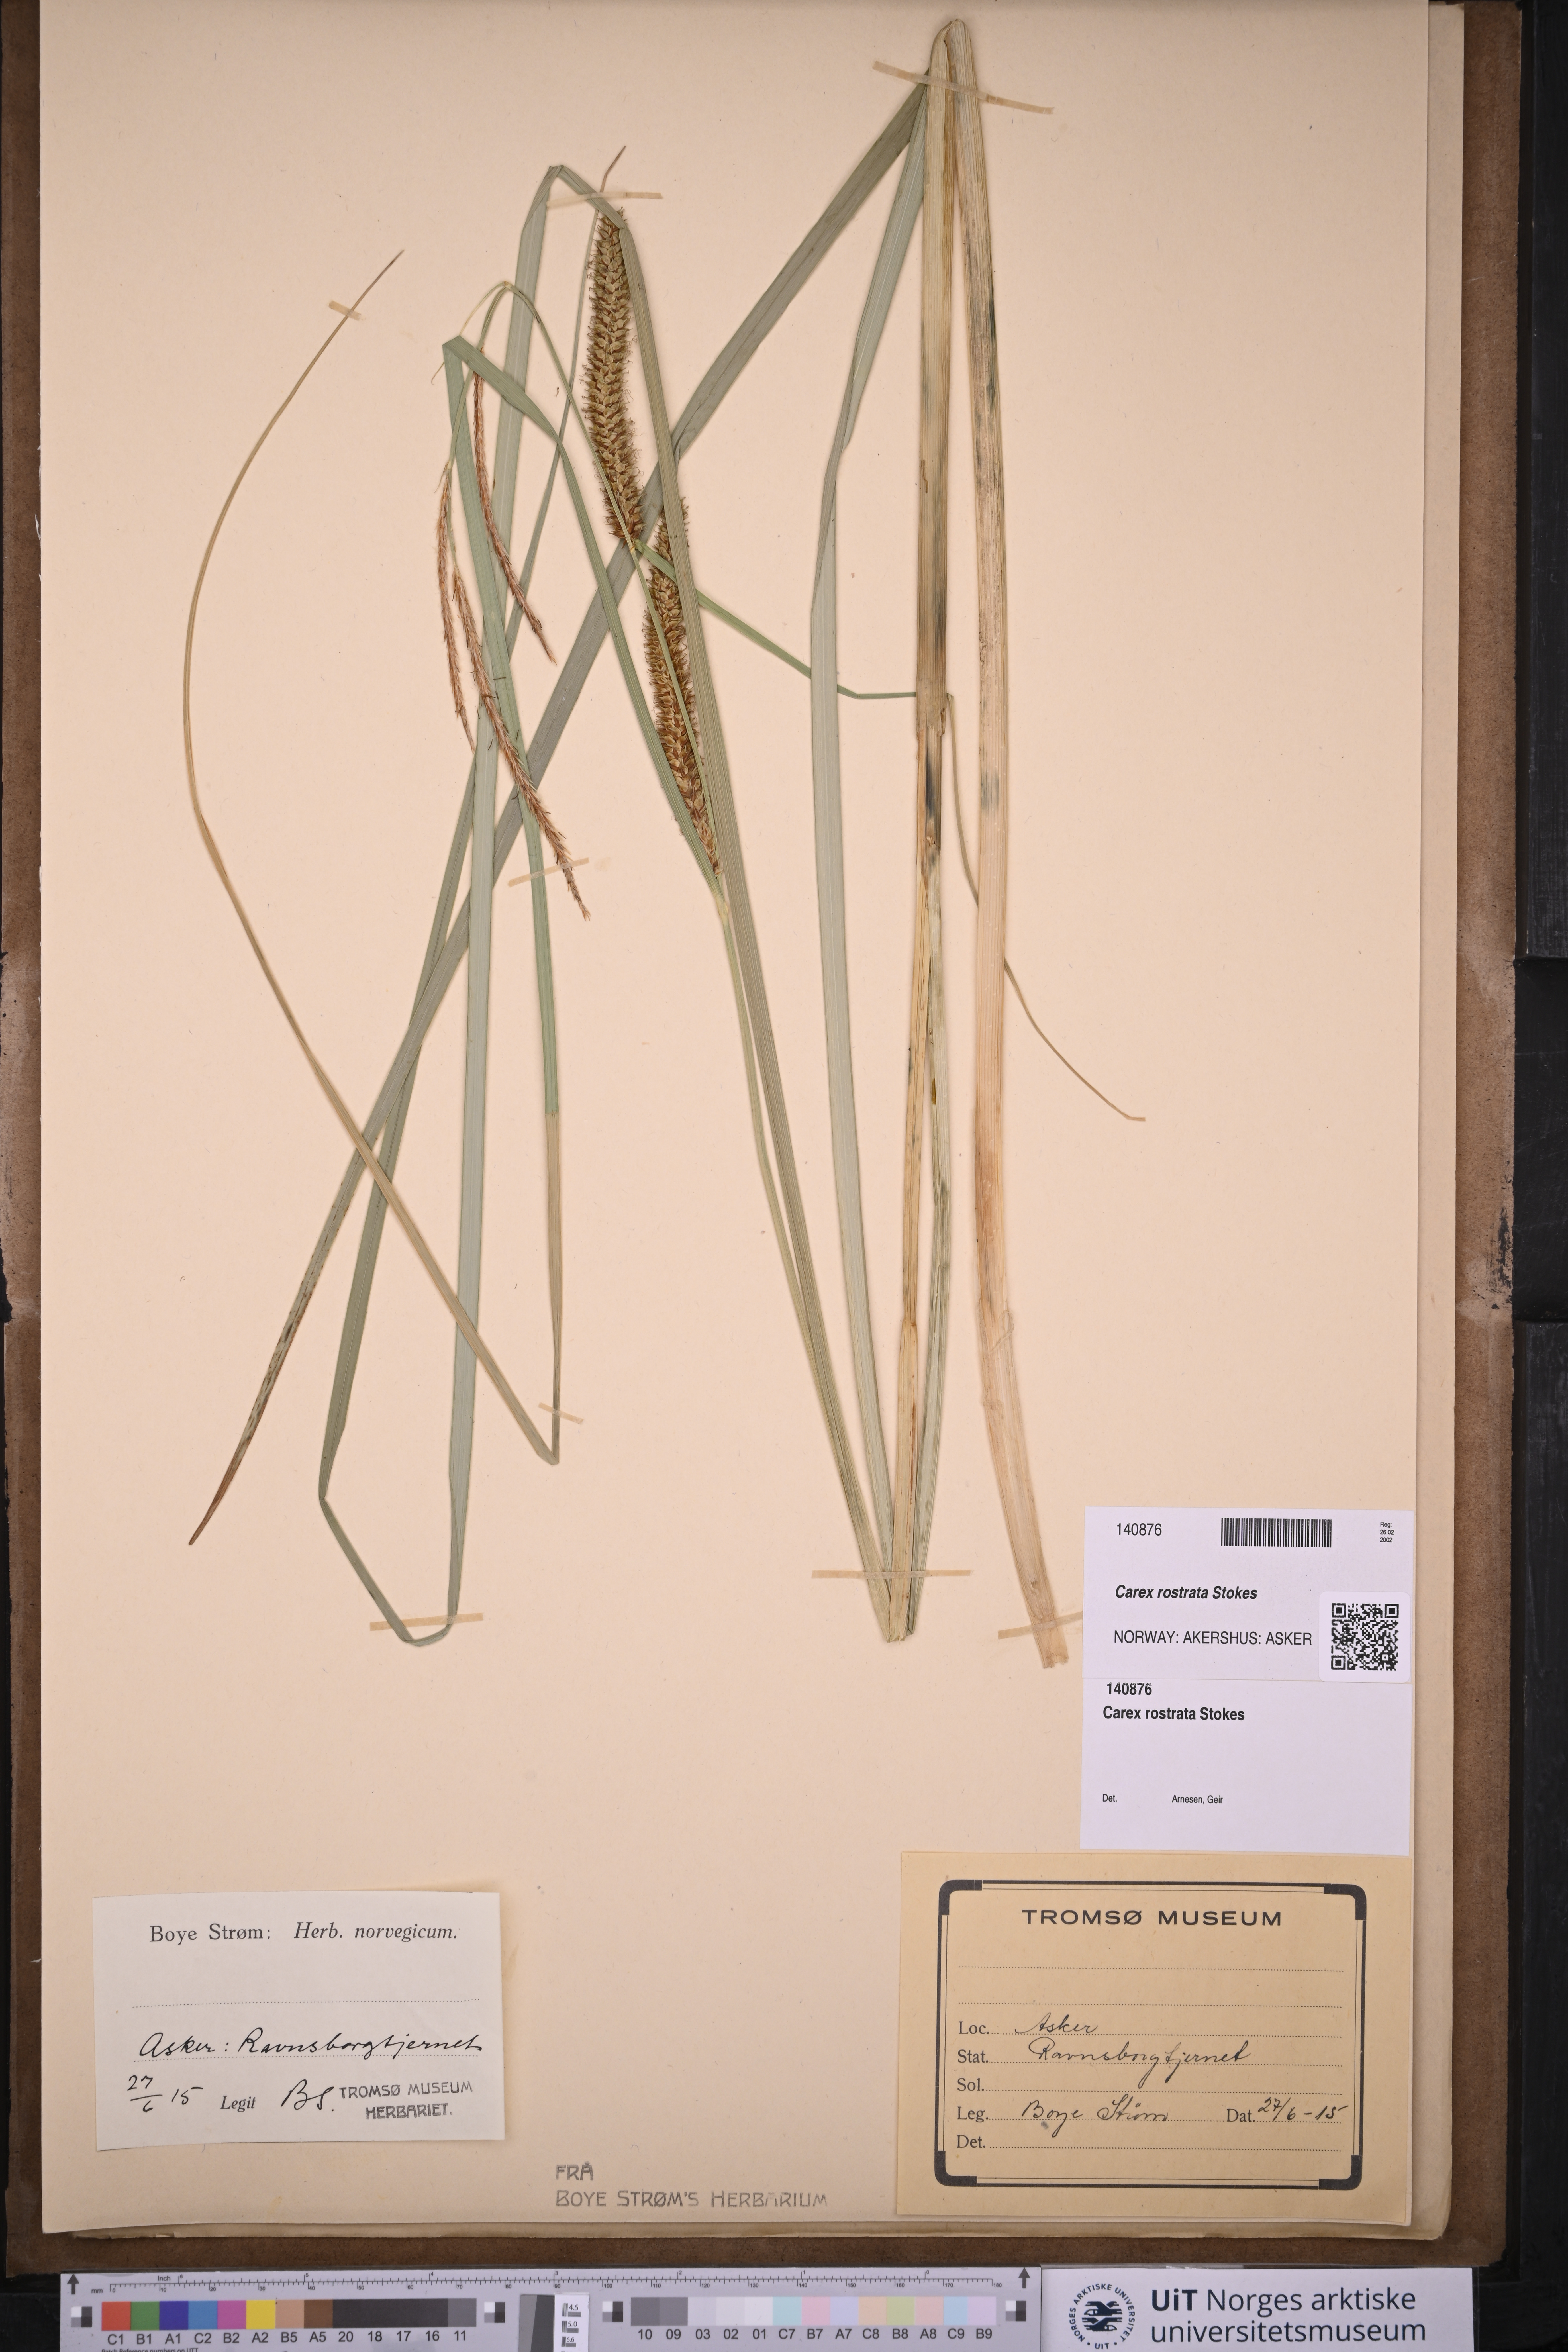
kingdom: Plantae
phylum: Tracheophyta
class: Liliopsida
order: Poales
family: Cyperaceae
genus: Carex
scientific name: Carex rostrata
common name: Bottle sedge
